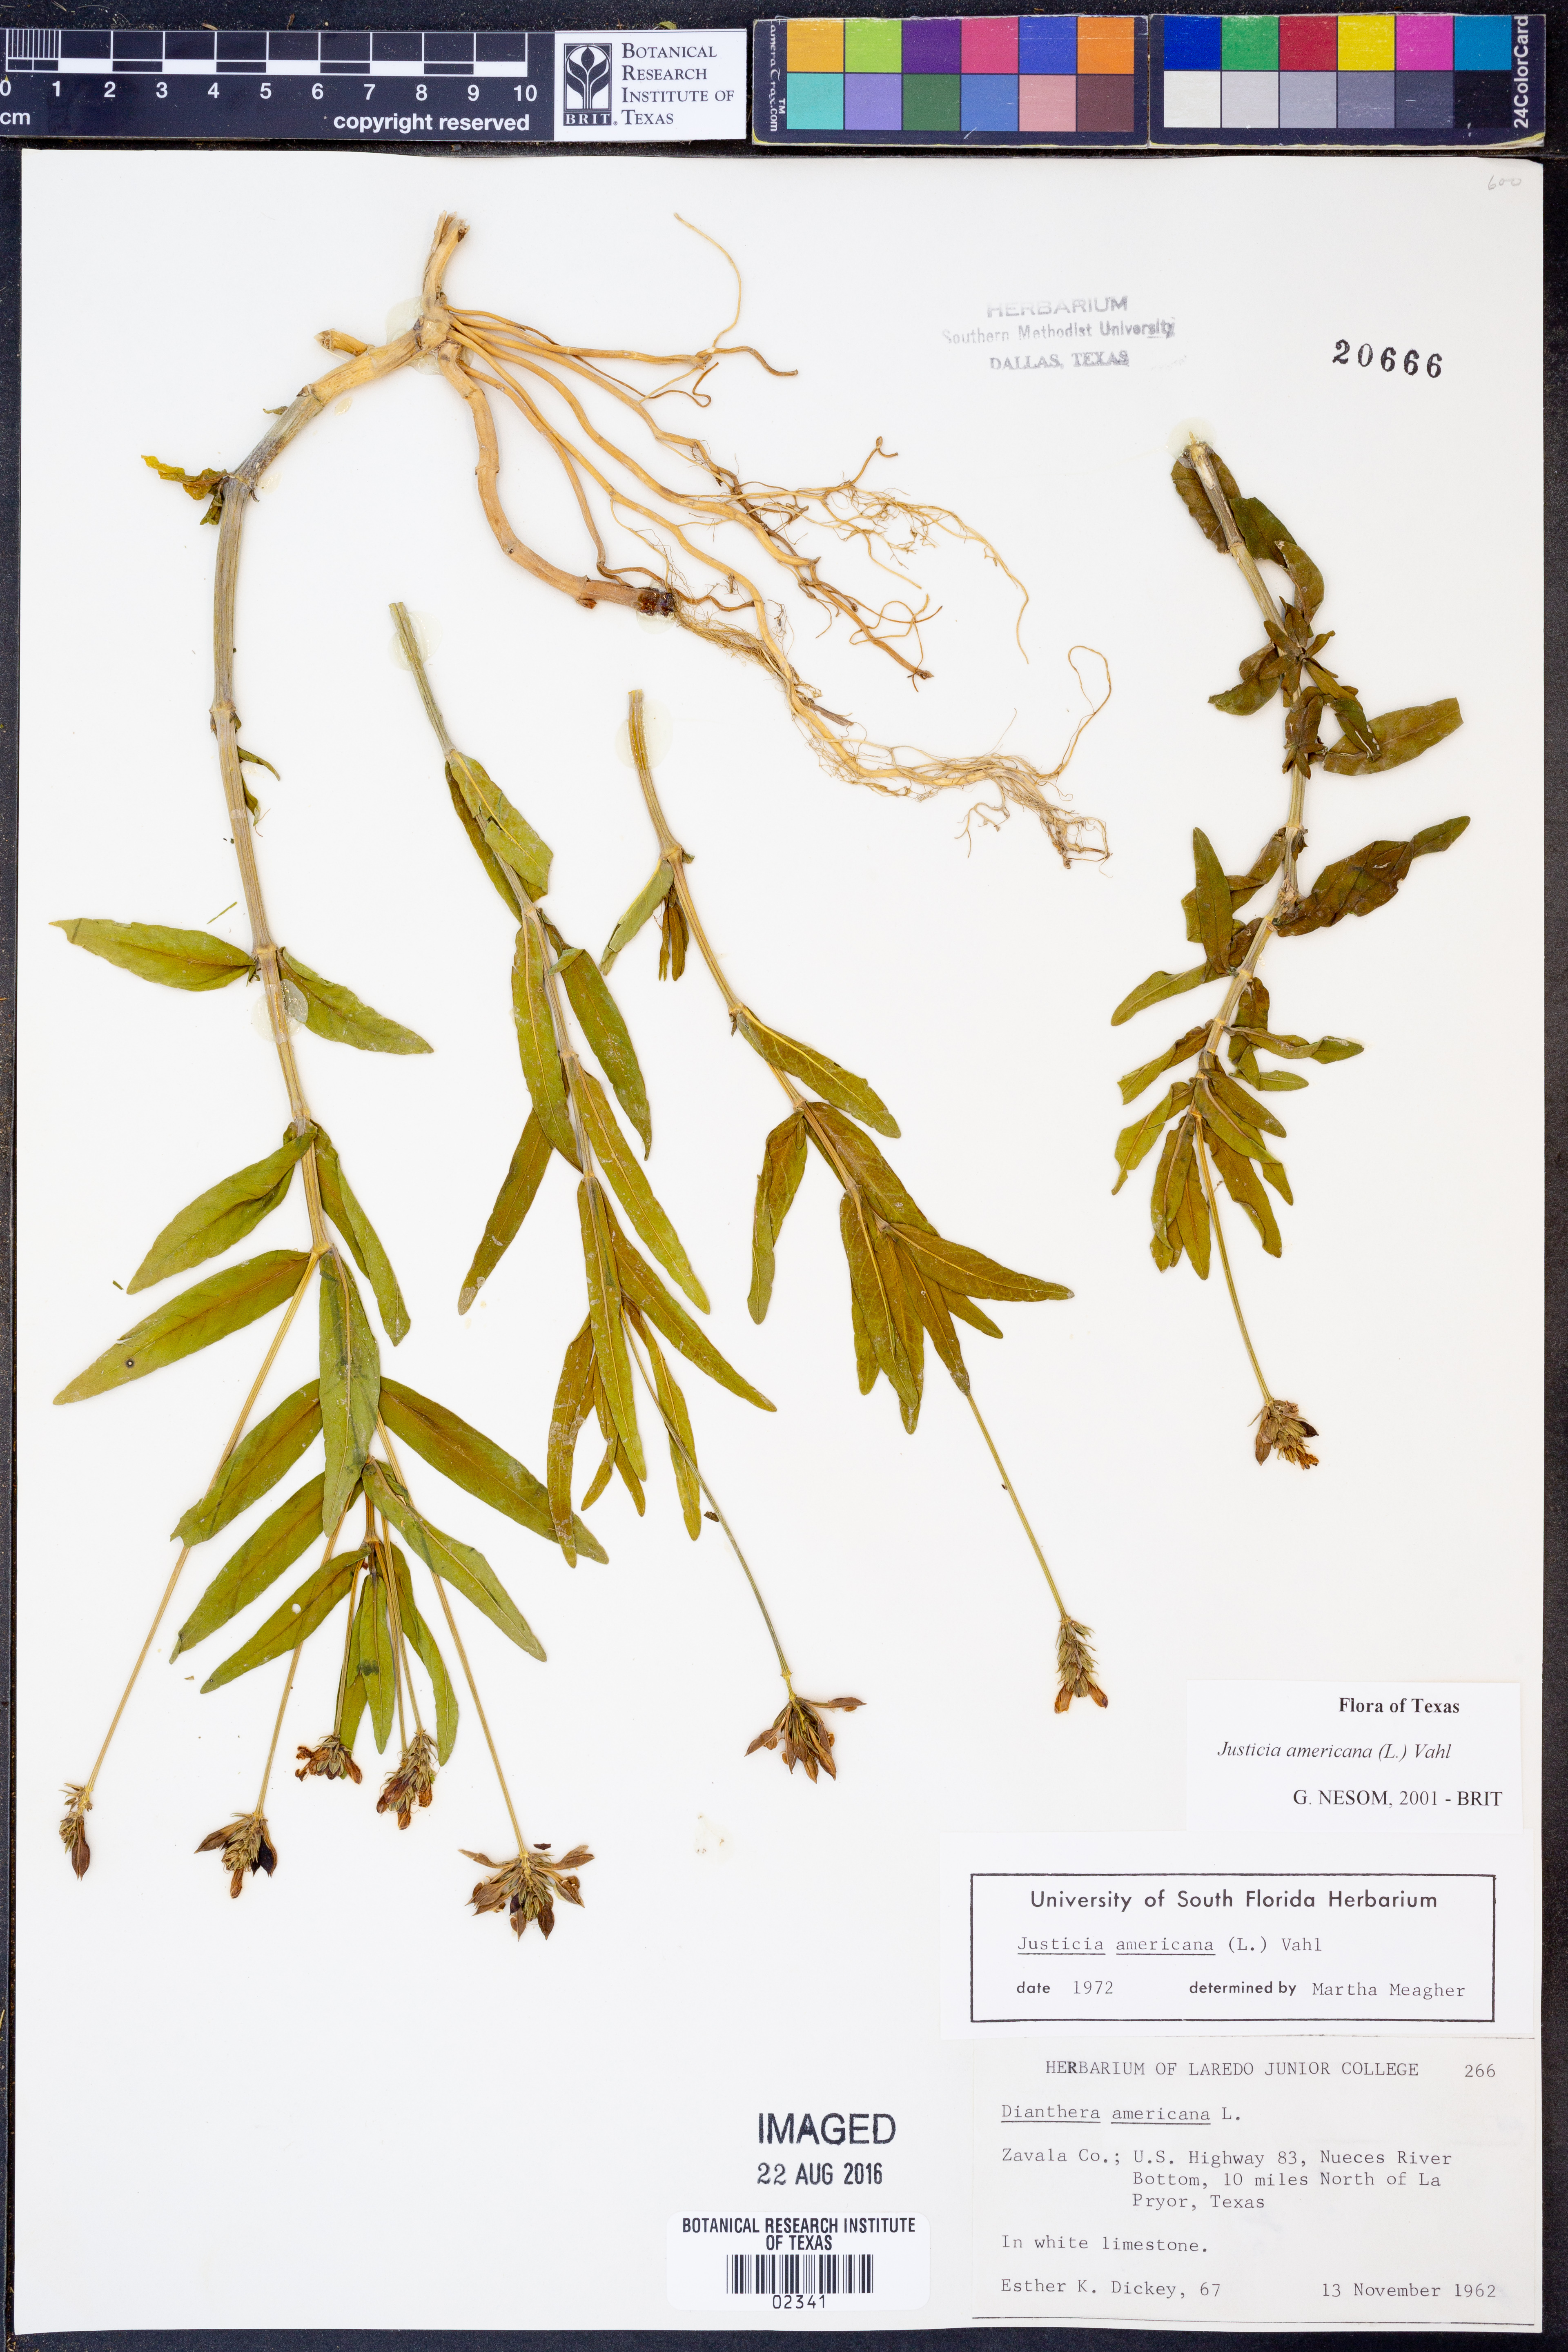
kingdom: Plantae
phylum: Tracheophyta
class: Magnoliopsida
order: Lamiales
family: Acanthaceae
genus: Dianthera
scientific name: Dianthera americana
